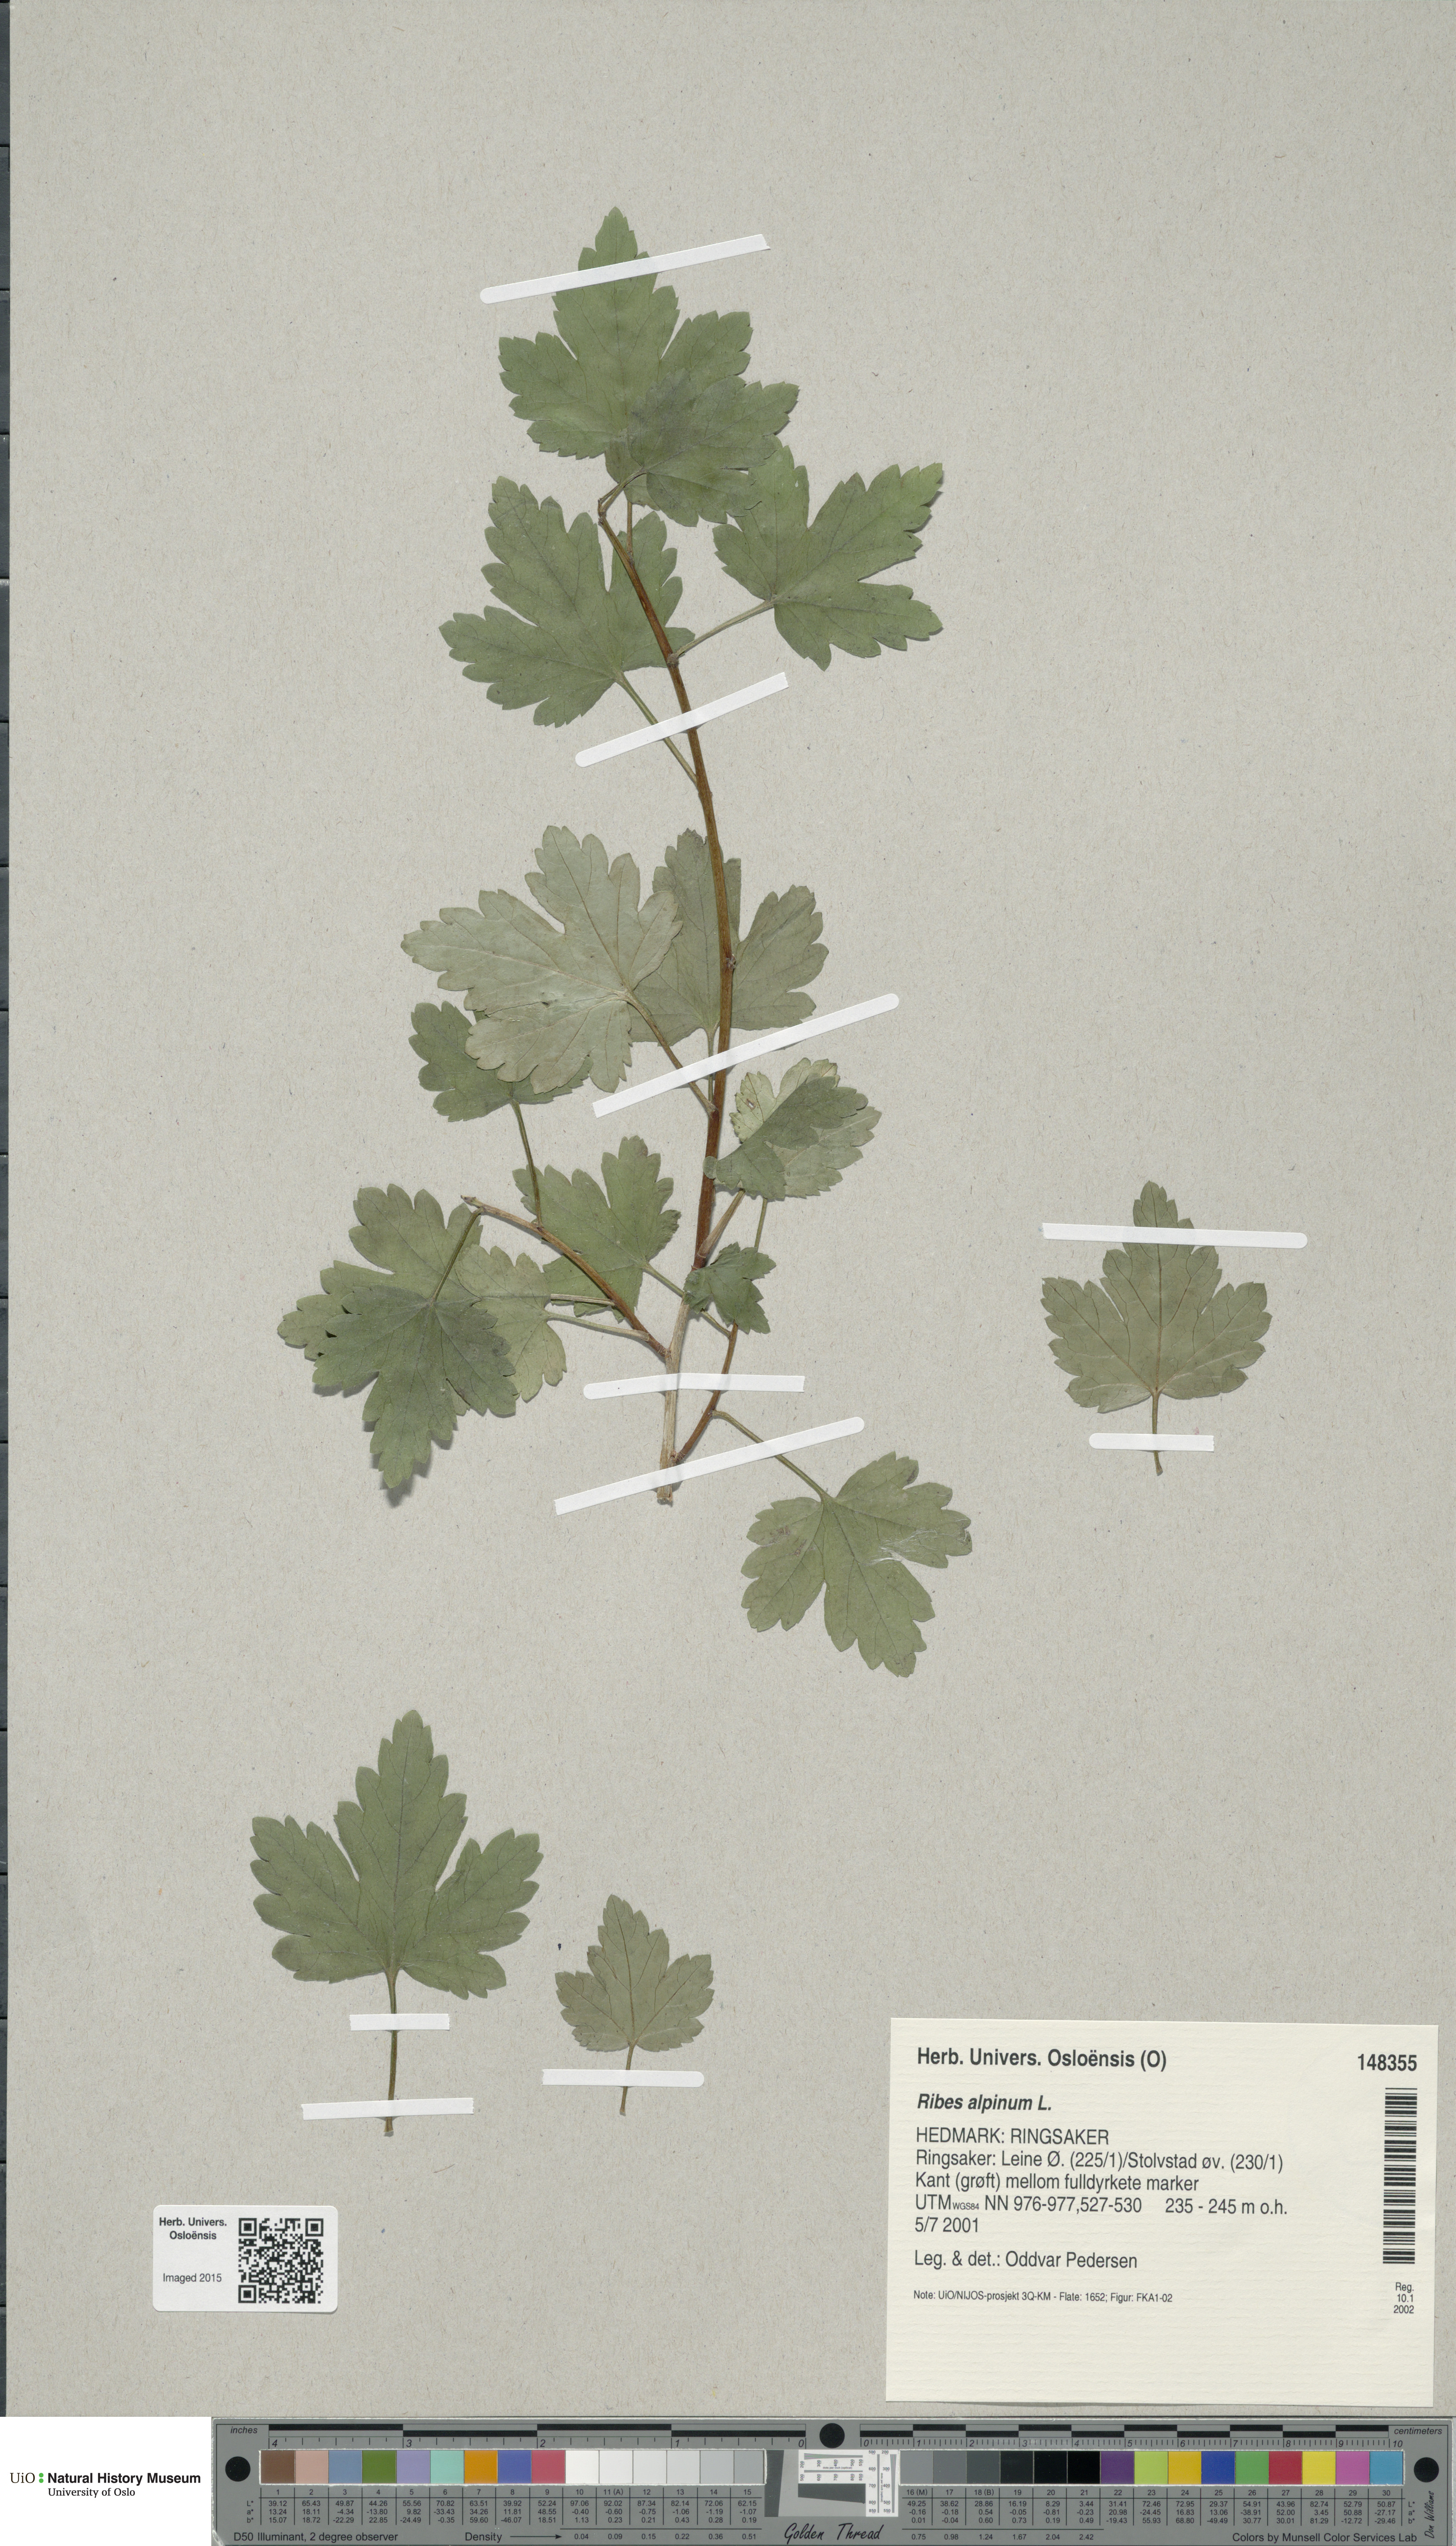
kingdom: Plantae
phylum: Tracheophyta
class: Magnoliopsida
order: Saxifragales
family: Grossulariaceae
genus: Ribes
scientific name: Ribes alpinum
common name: Alpine currant
